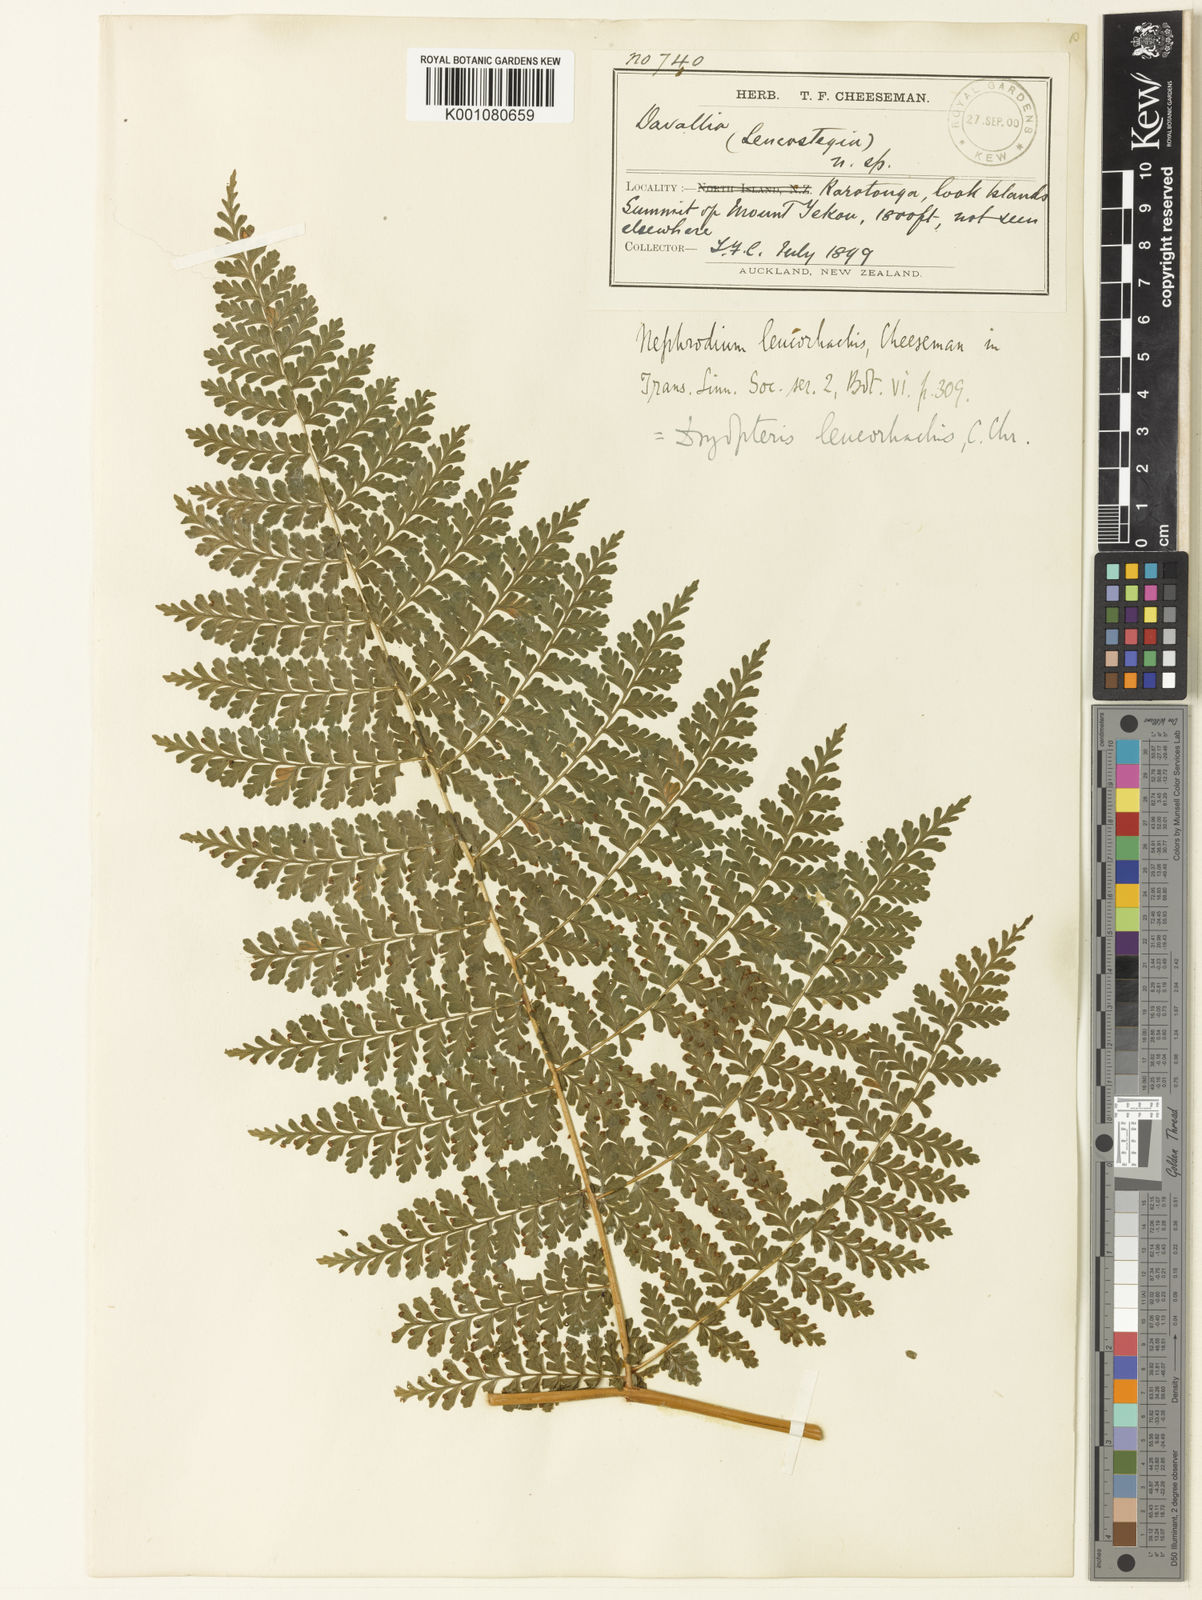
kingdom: Plantae
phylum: Tracheophyta
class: Polypodiopsida
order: Polypodiales
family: Dryopteridaceae
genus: Dryopteris
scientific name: Dryopteris leucorhachis
